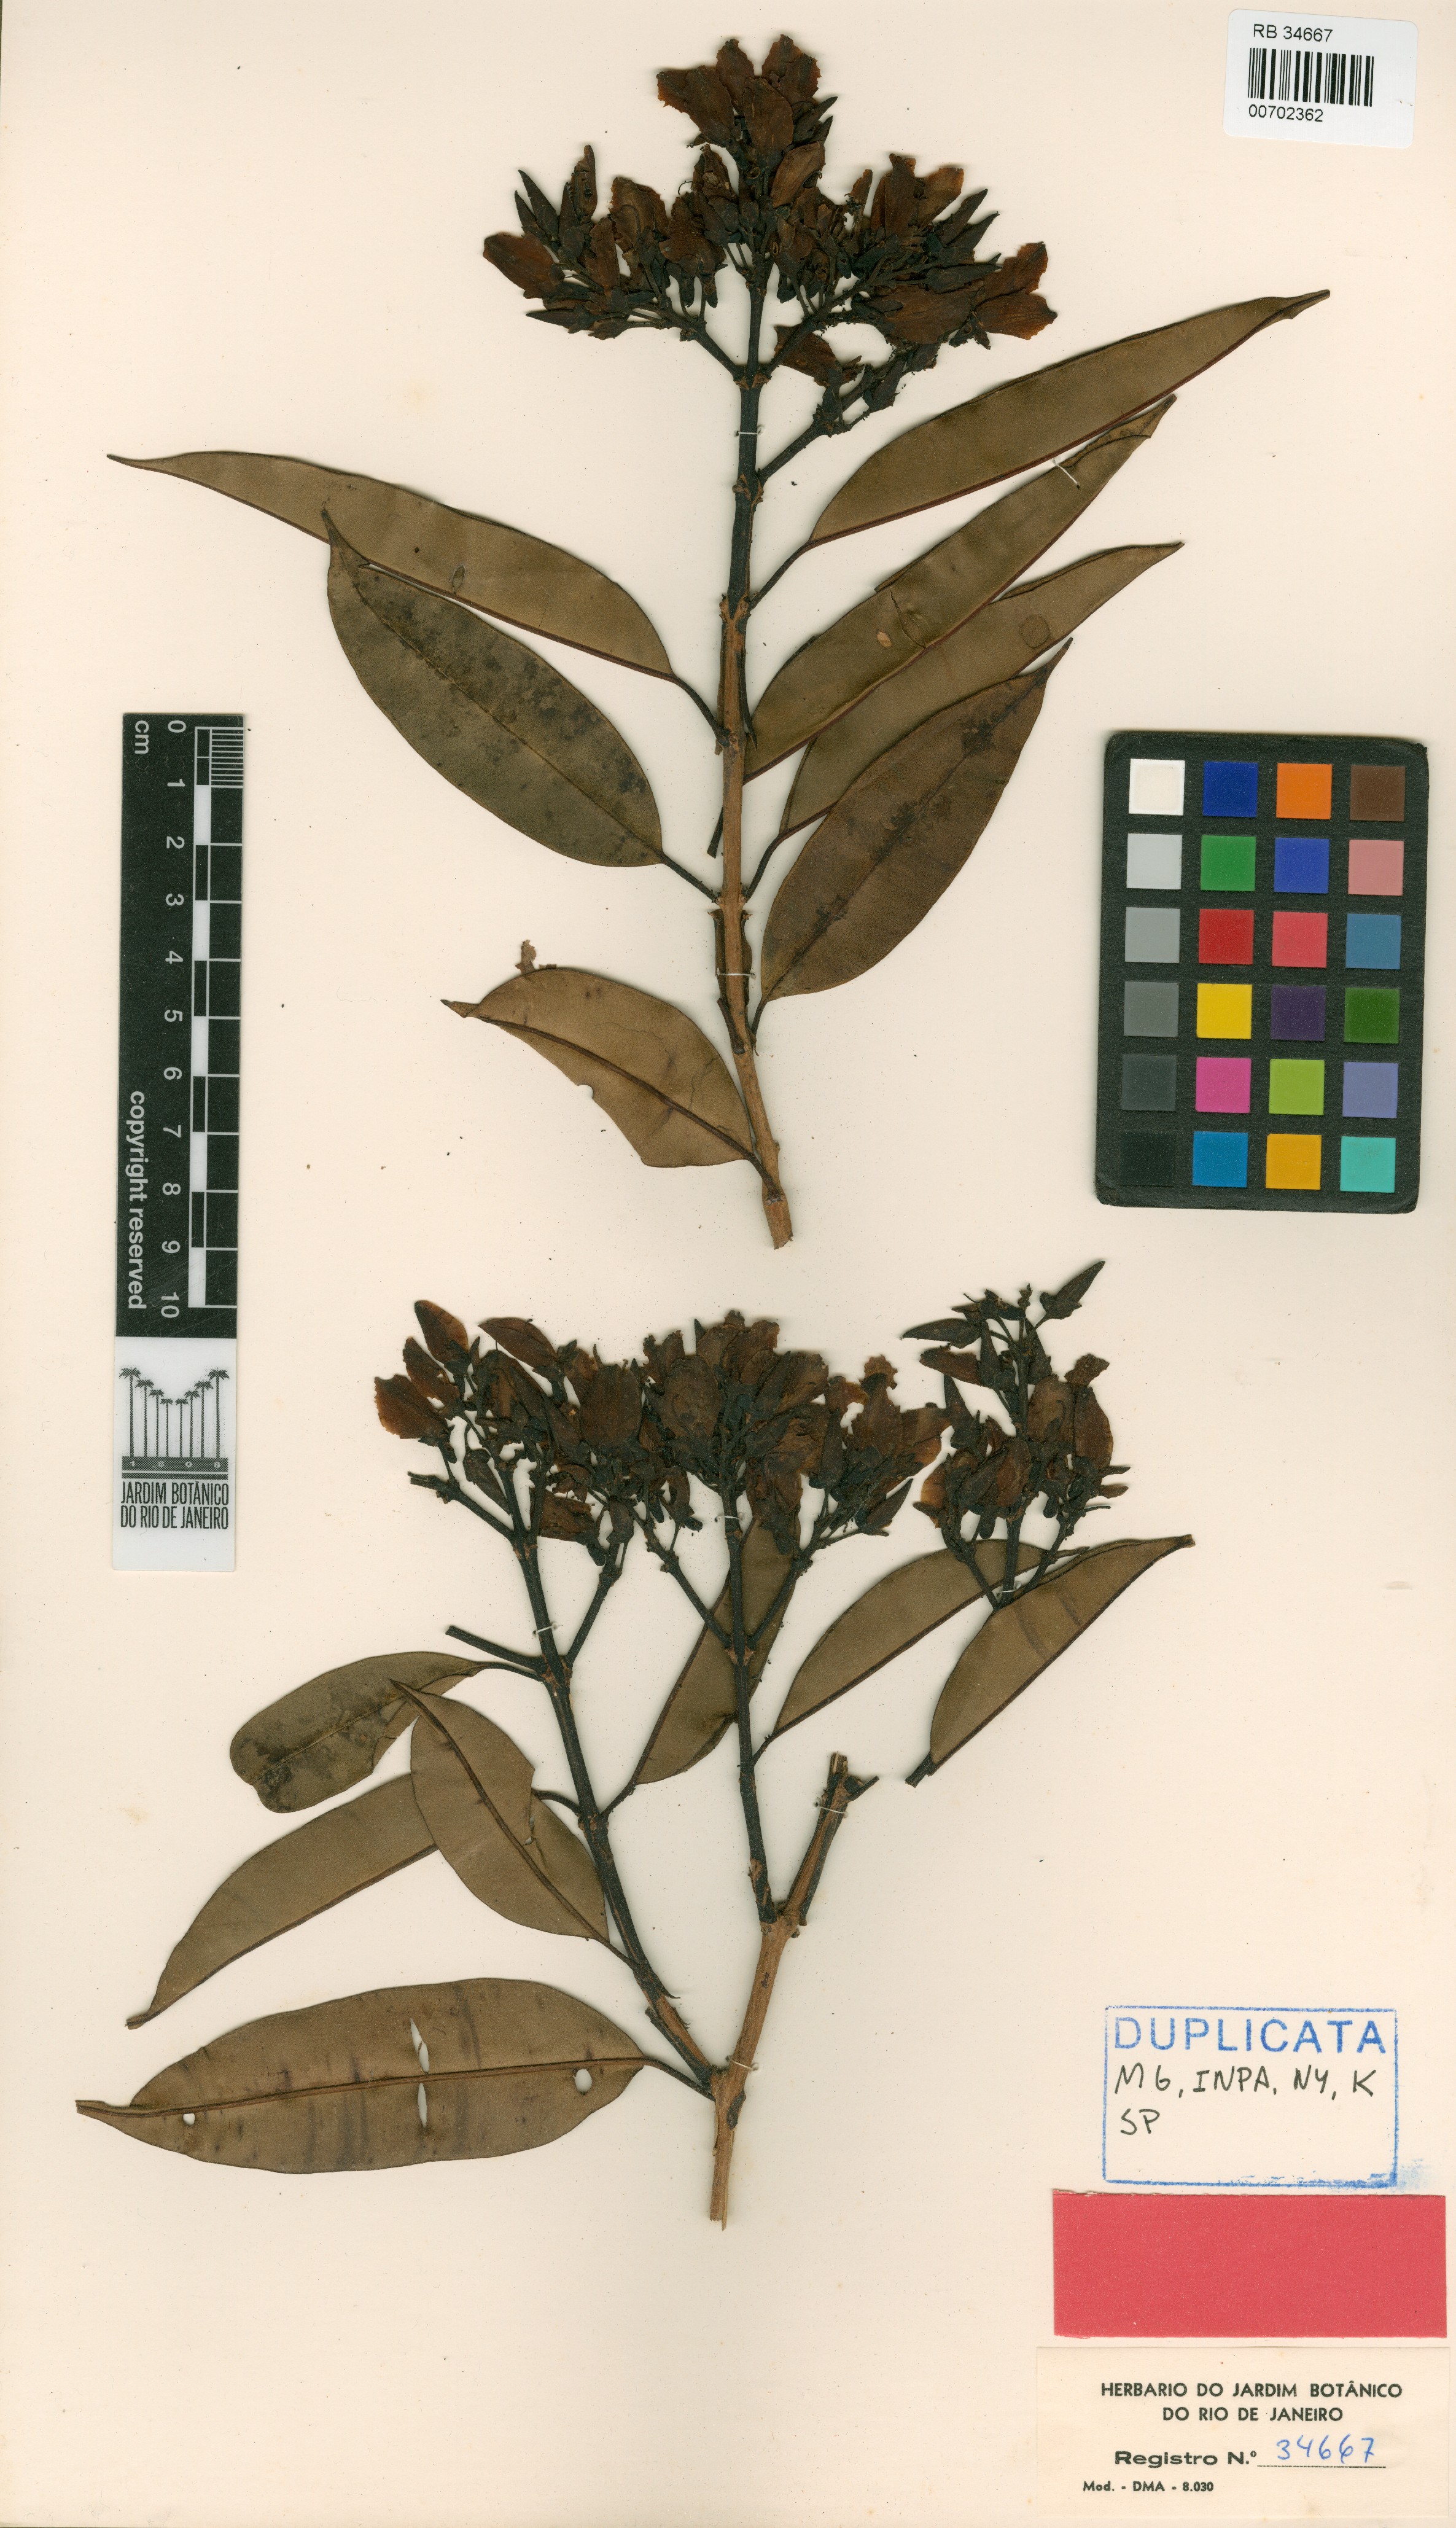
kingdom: Plantae
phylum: Tracheophyta
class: Magnoliopsida
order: Myrtales
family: Vochysiaceae
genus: Qualea
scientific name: Qualea decorticans
